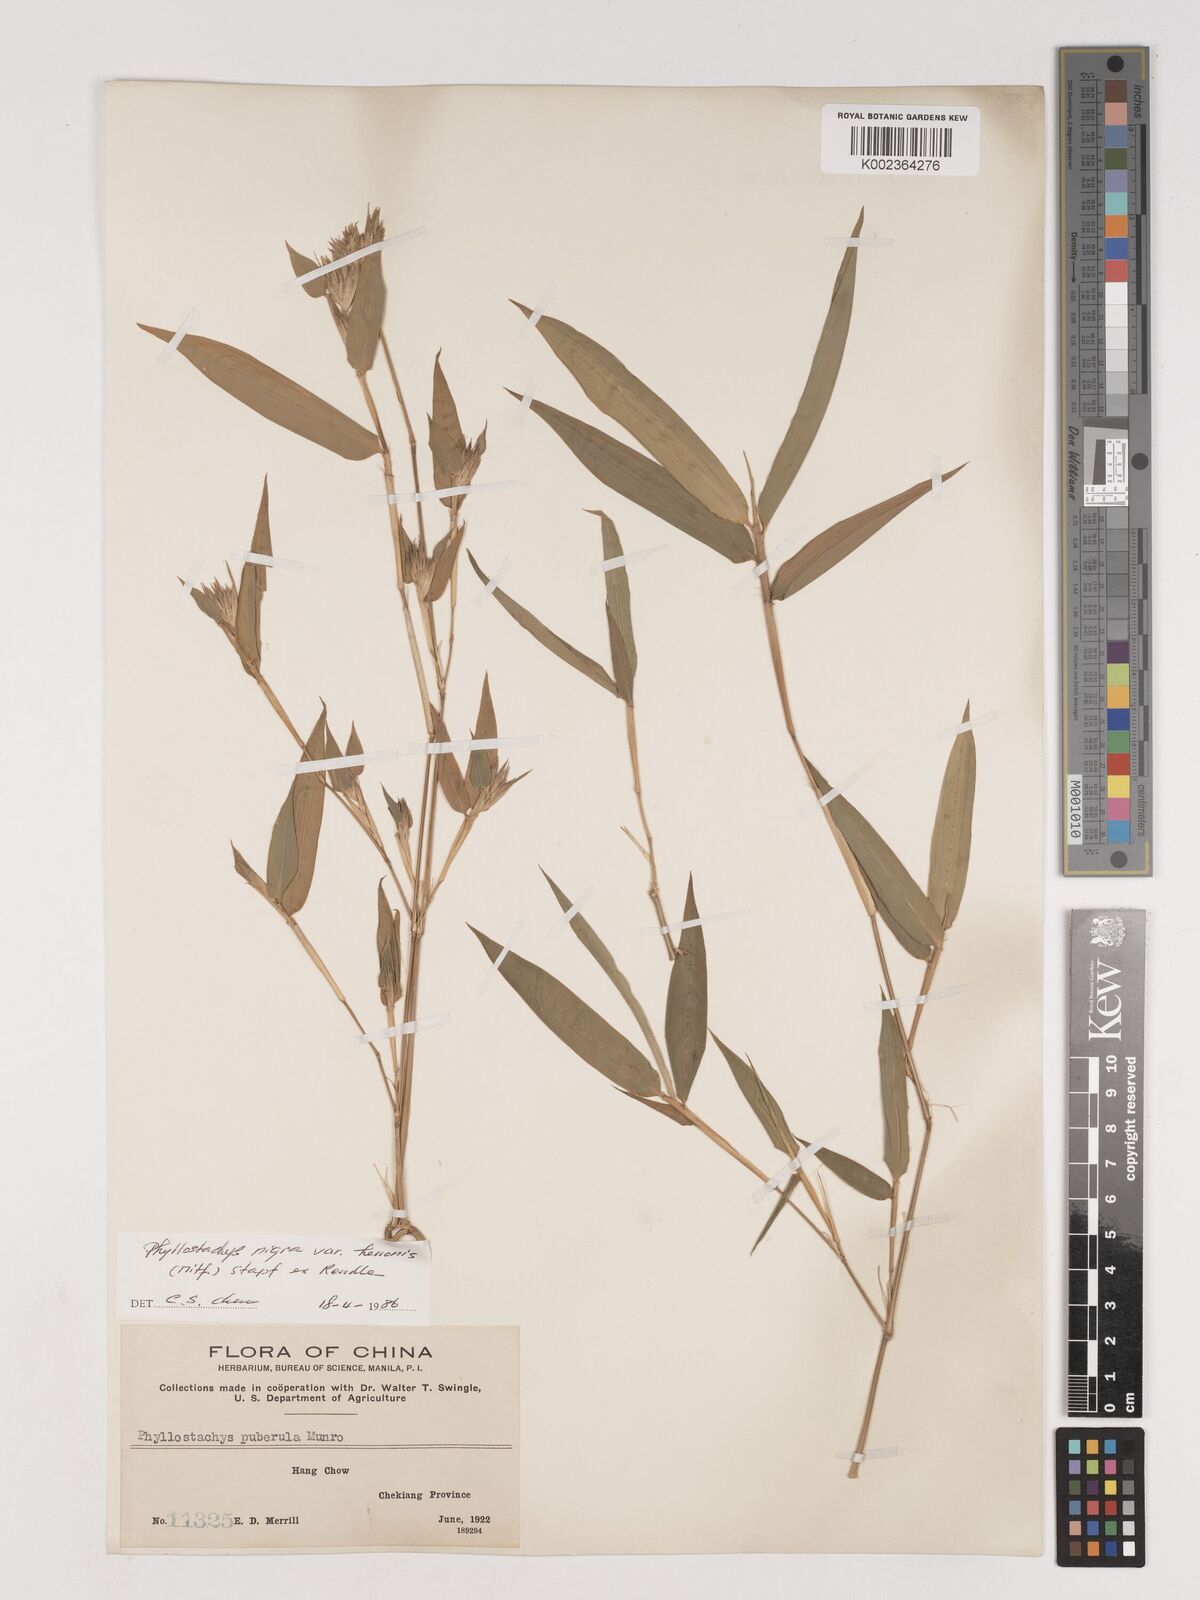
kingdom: Plantae
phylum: Tracheophyta
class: Liliopsida
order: Poales
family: Poaceae
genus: Phyllostachys
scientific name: Phyllostachys nigra
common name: Black bamboo
